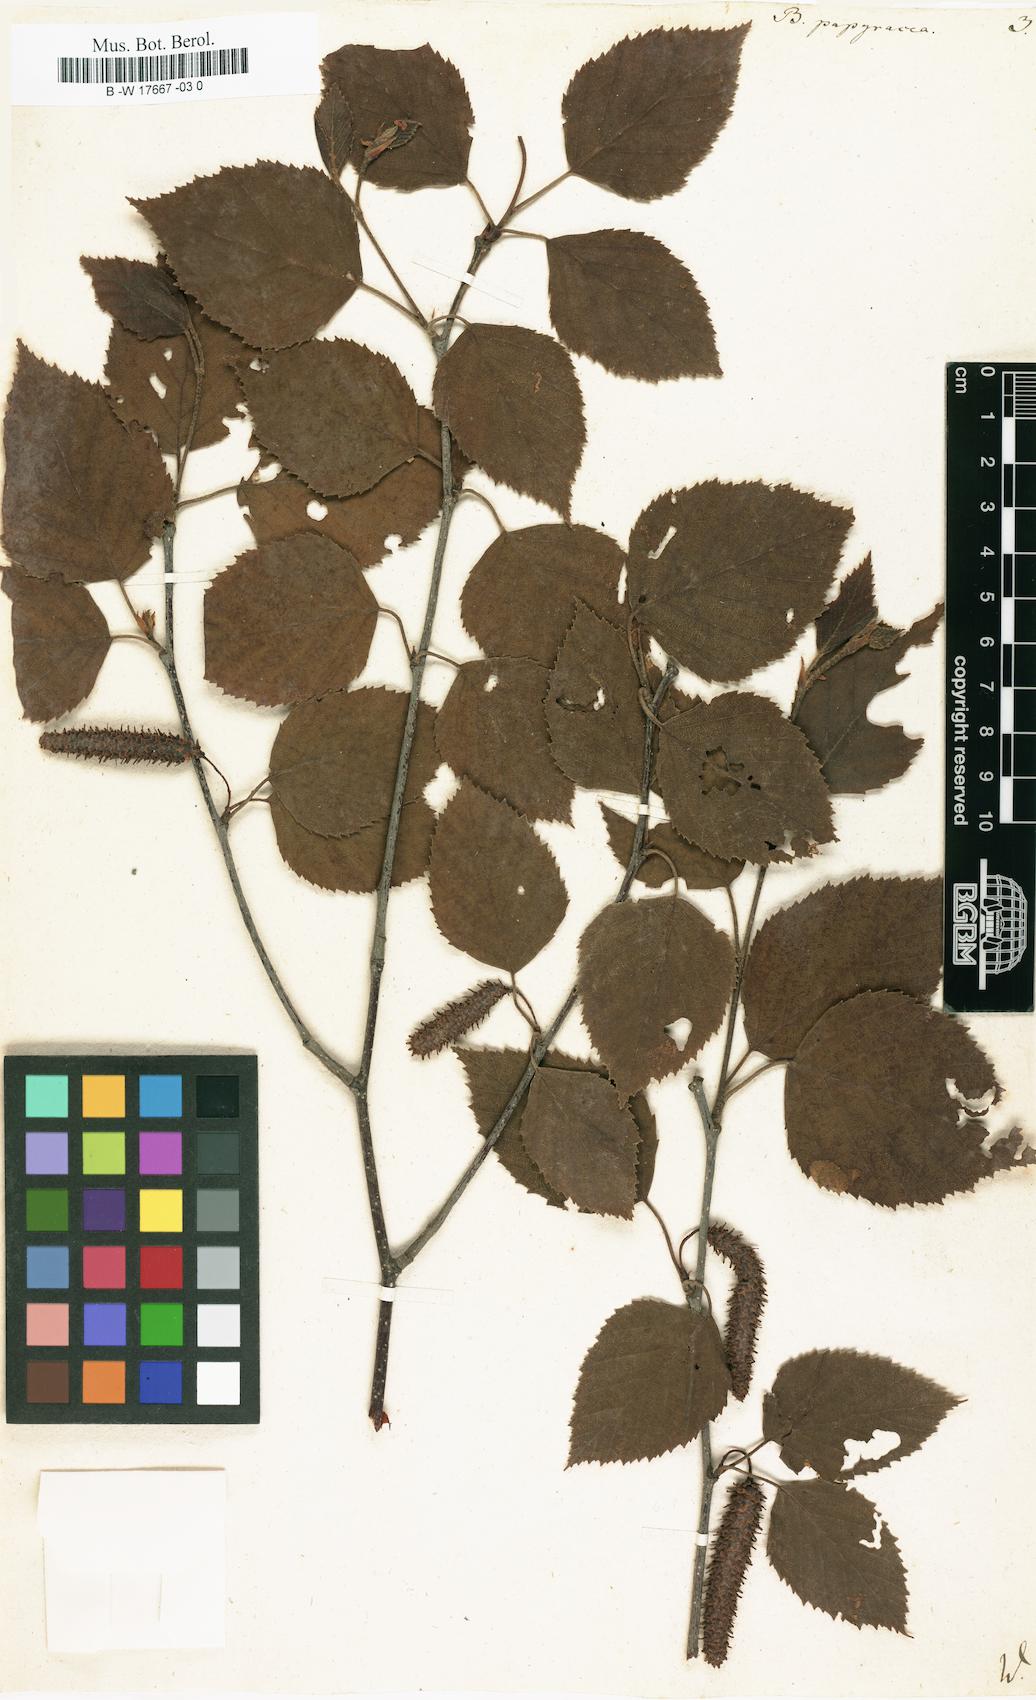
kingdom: Plantae
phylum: Tracheophyta
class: Magnoliopsida
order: Fagales
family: Betulaceae
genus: Betula
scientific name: Betula papyrifera
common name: Paper birch
